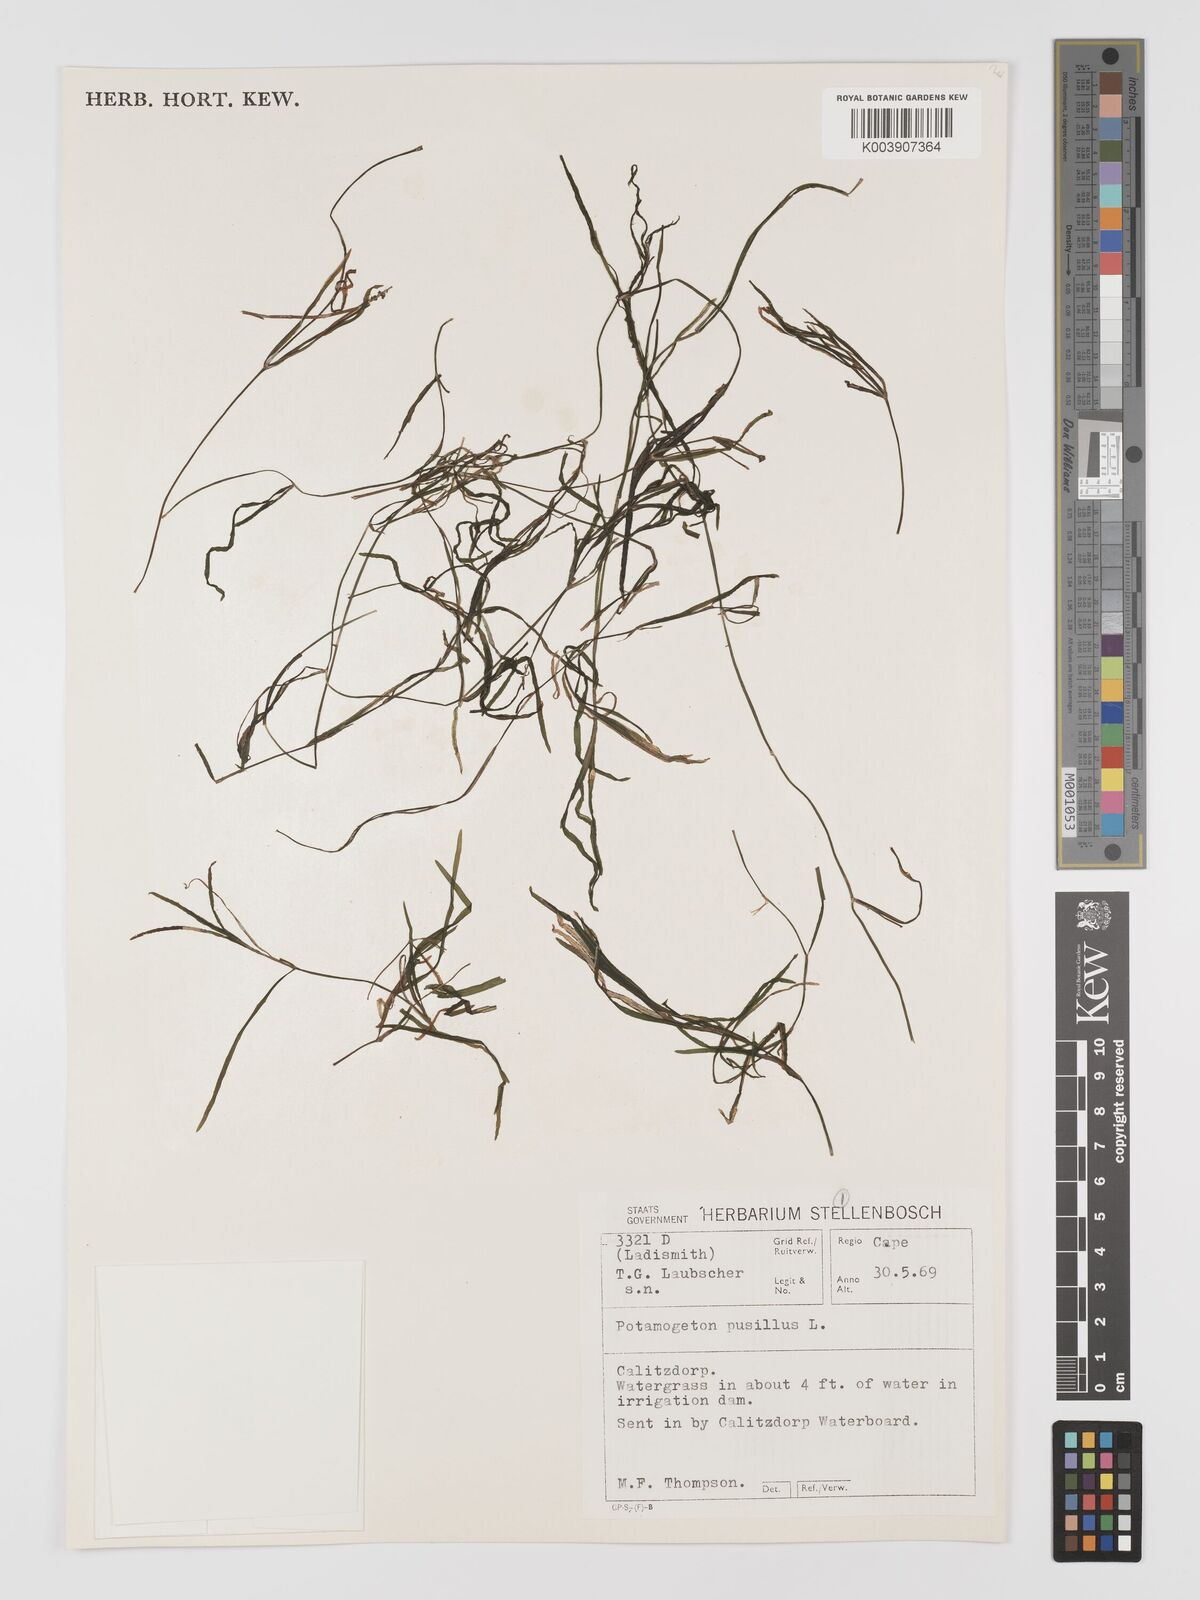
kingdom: Plantae
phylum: Tracheophyta
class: Liliopsida
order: Alismatales
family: Potamogetonaceae
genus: Potamogeton
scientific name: Potamogeton pusillus
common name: Lesser pondweed
